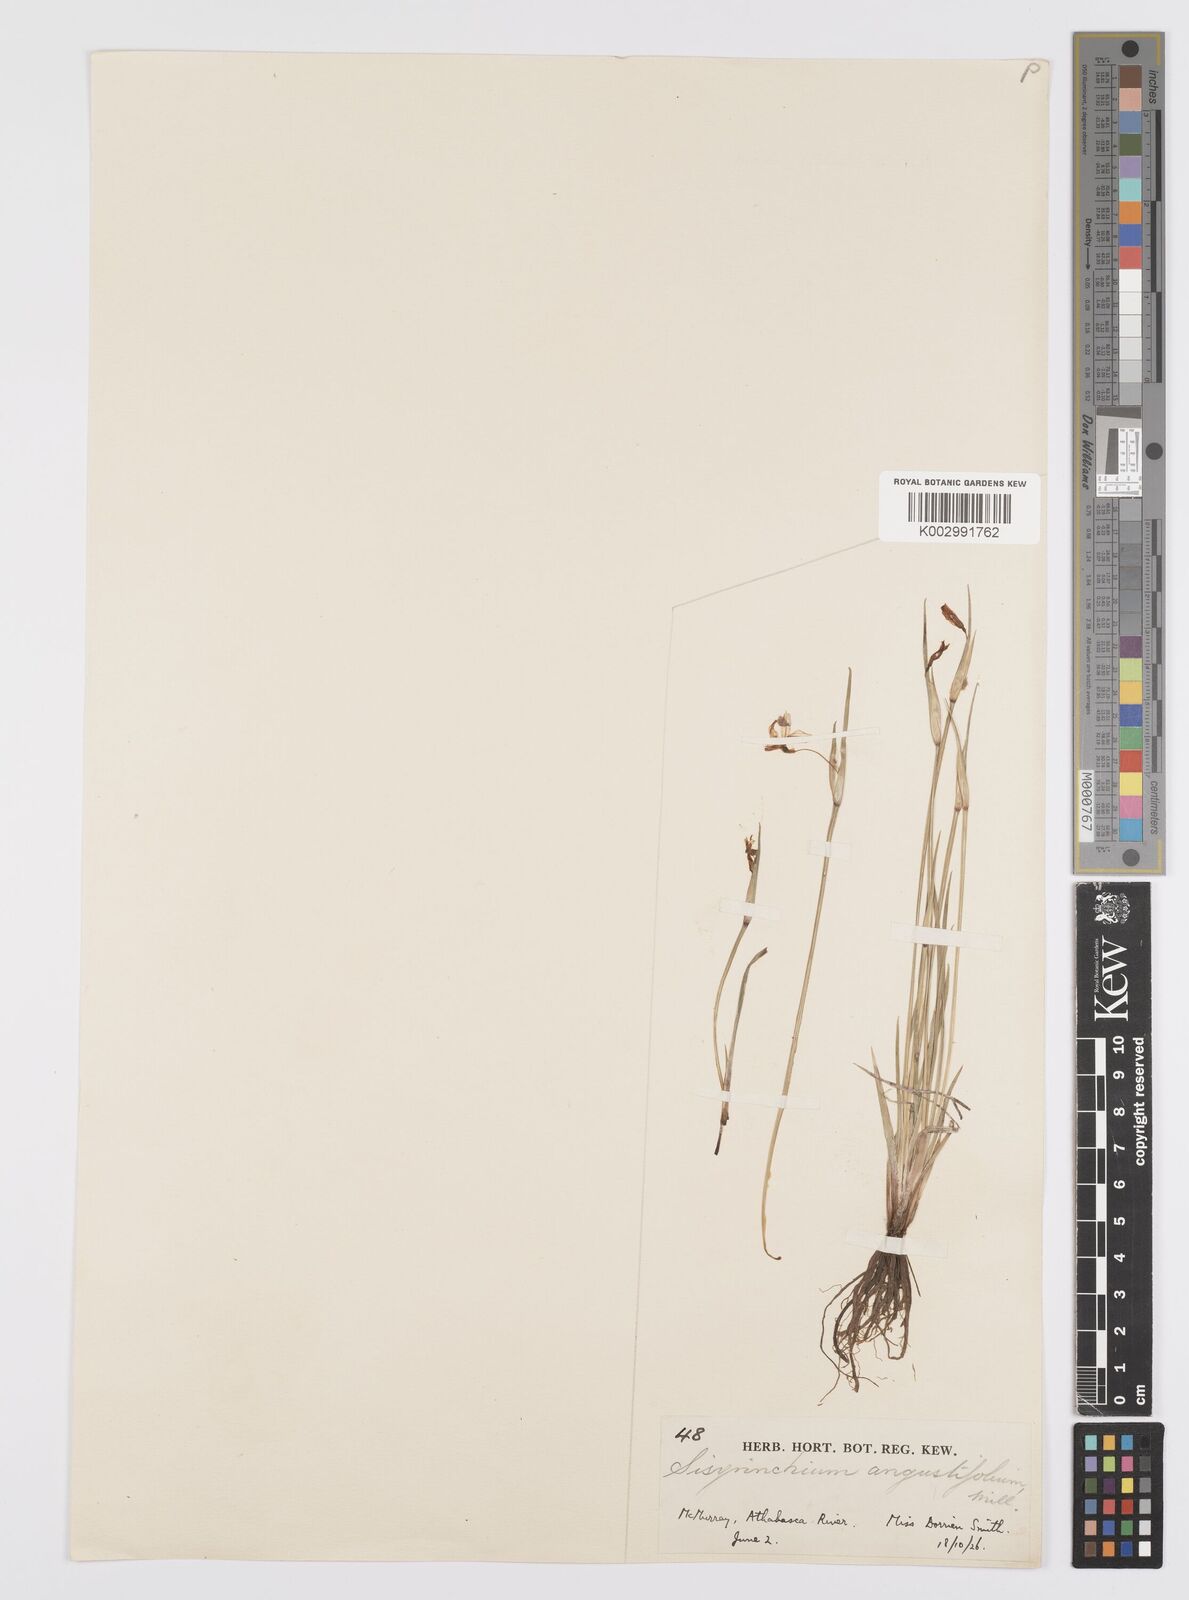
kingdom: Plantae
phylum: Tracheophyta
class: Liliopsida
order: Asparagales
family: Iridaceae
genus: Sisyrinchium
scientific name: Sisyrinchium bermudiana
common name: Blue-eyed-grass
